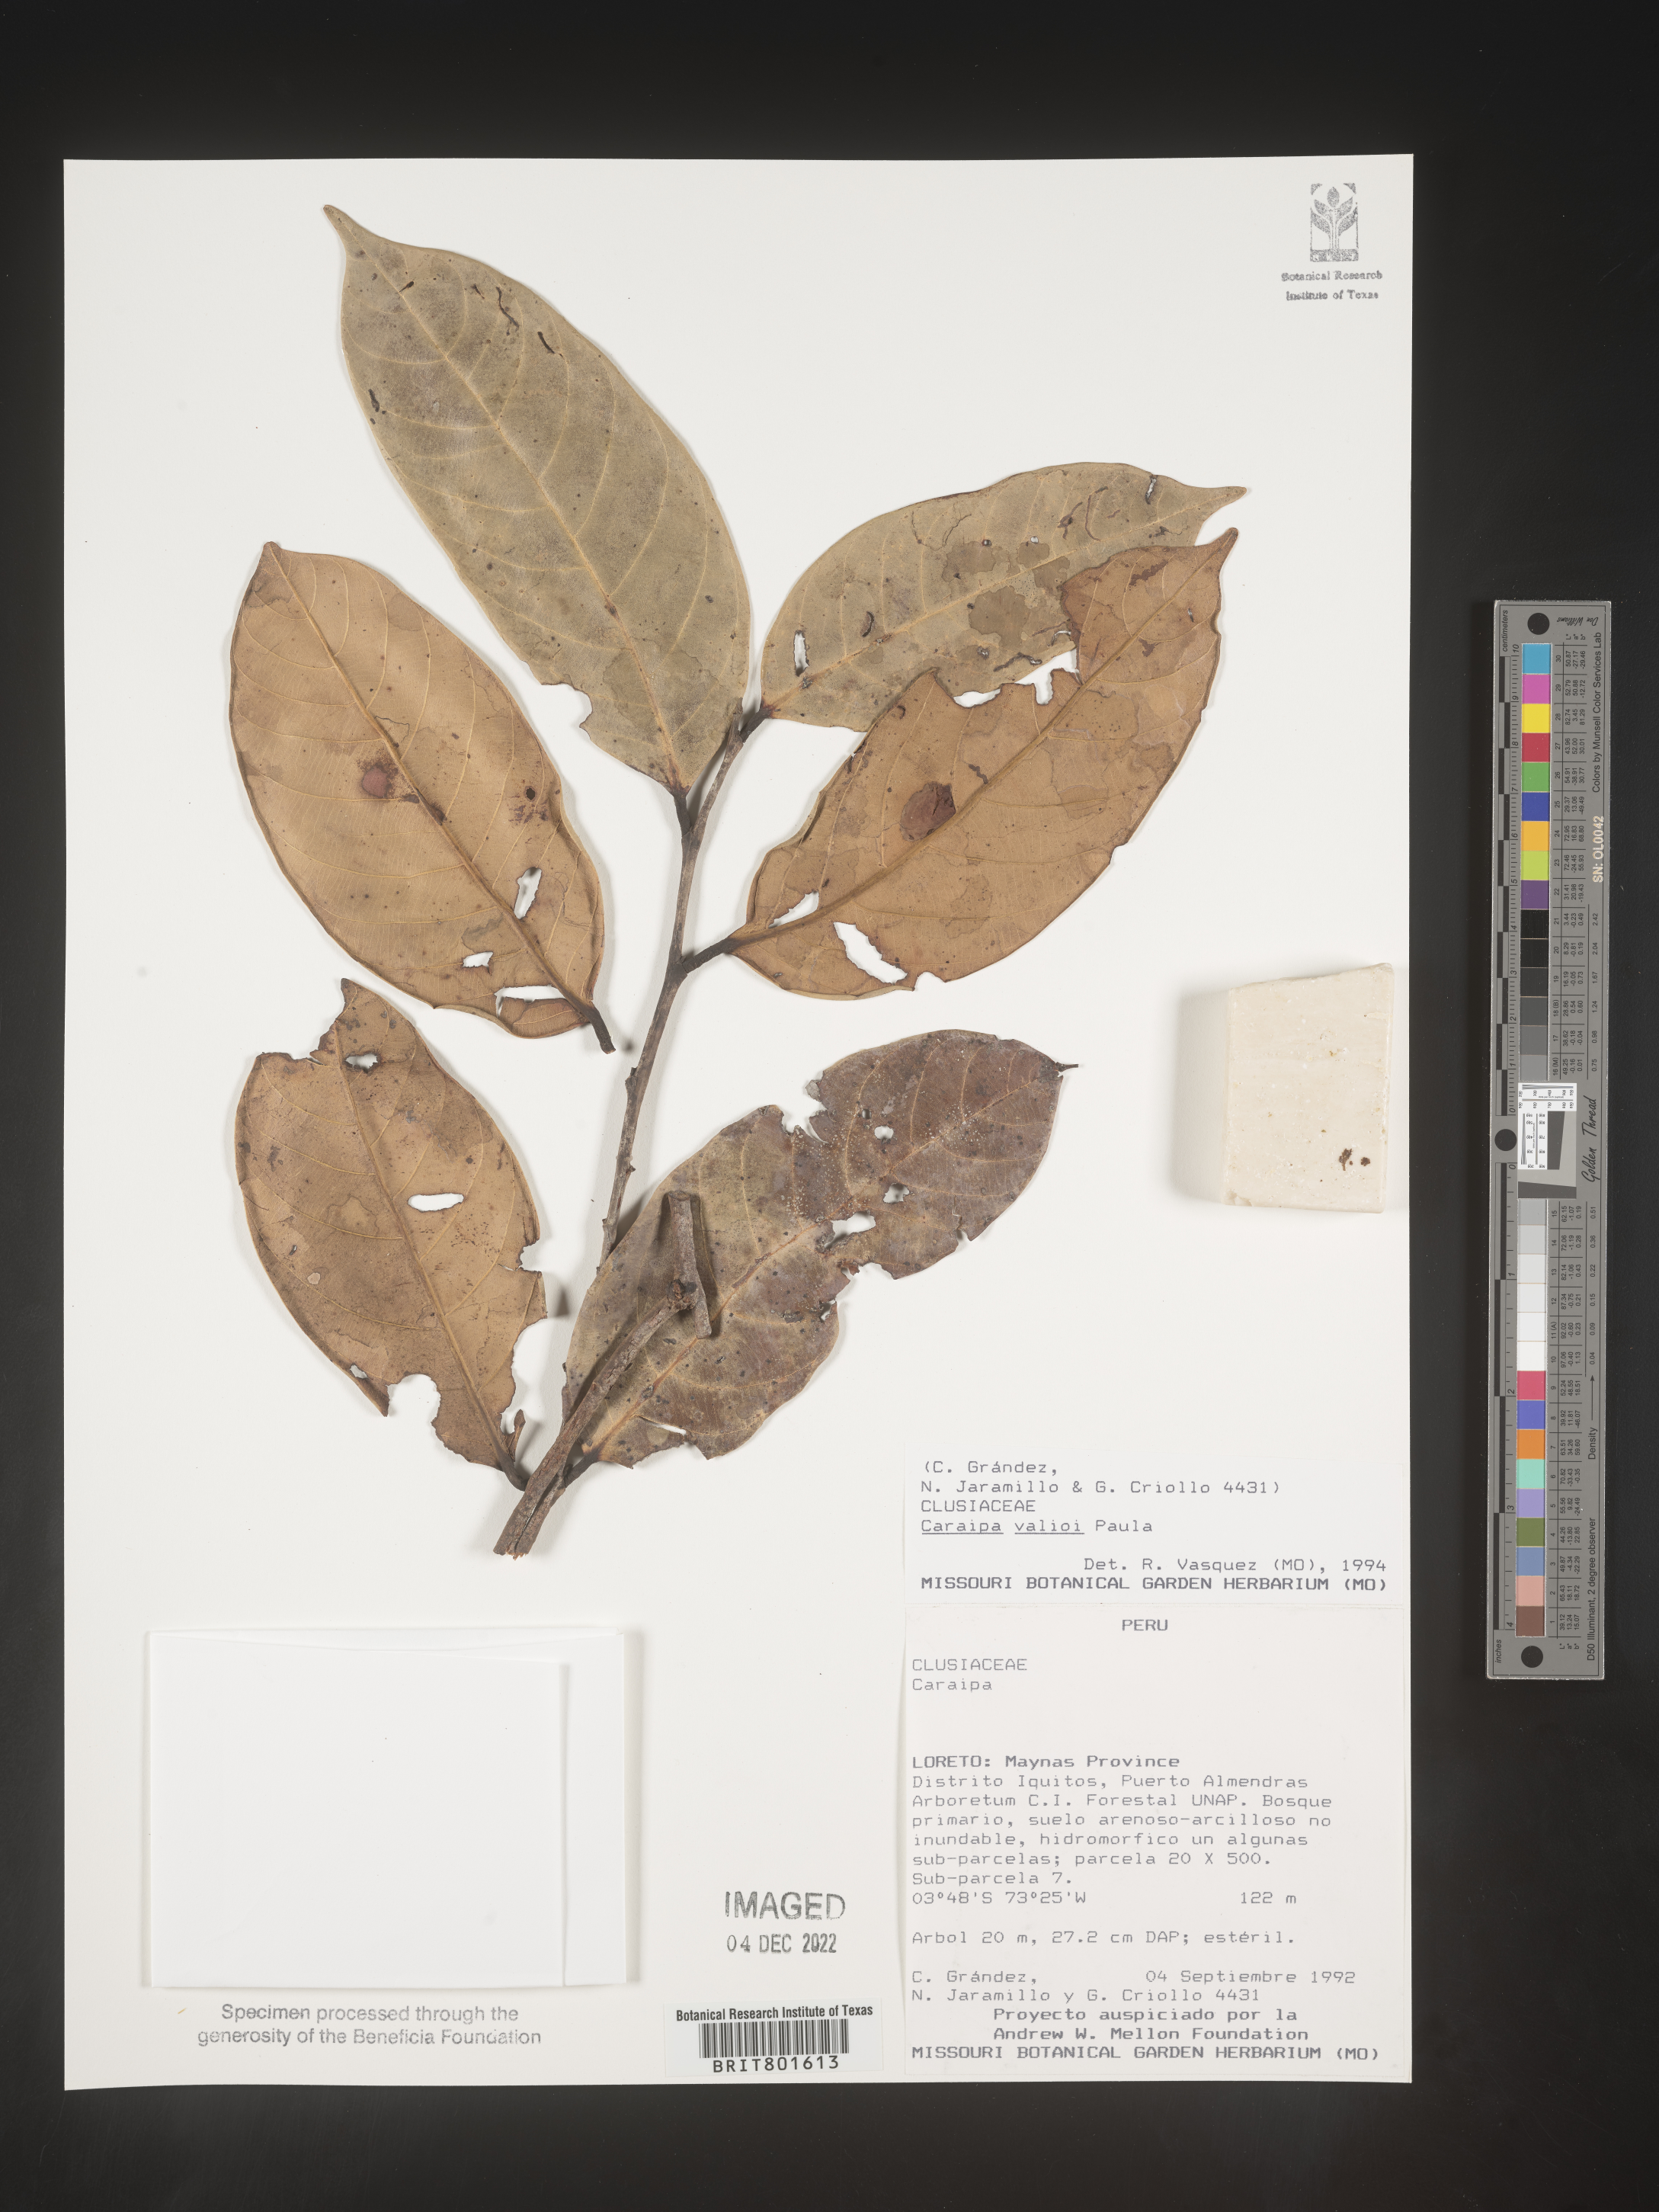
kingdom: Plantae
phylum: Tracheophyta
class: Magnoliopsida
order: Malpighiales
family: Calophyllaceae
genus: Caraipa
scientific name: Caraipa valioi
